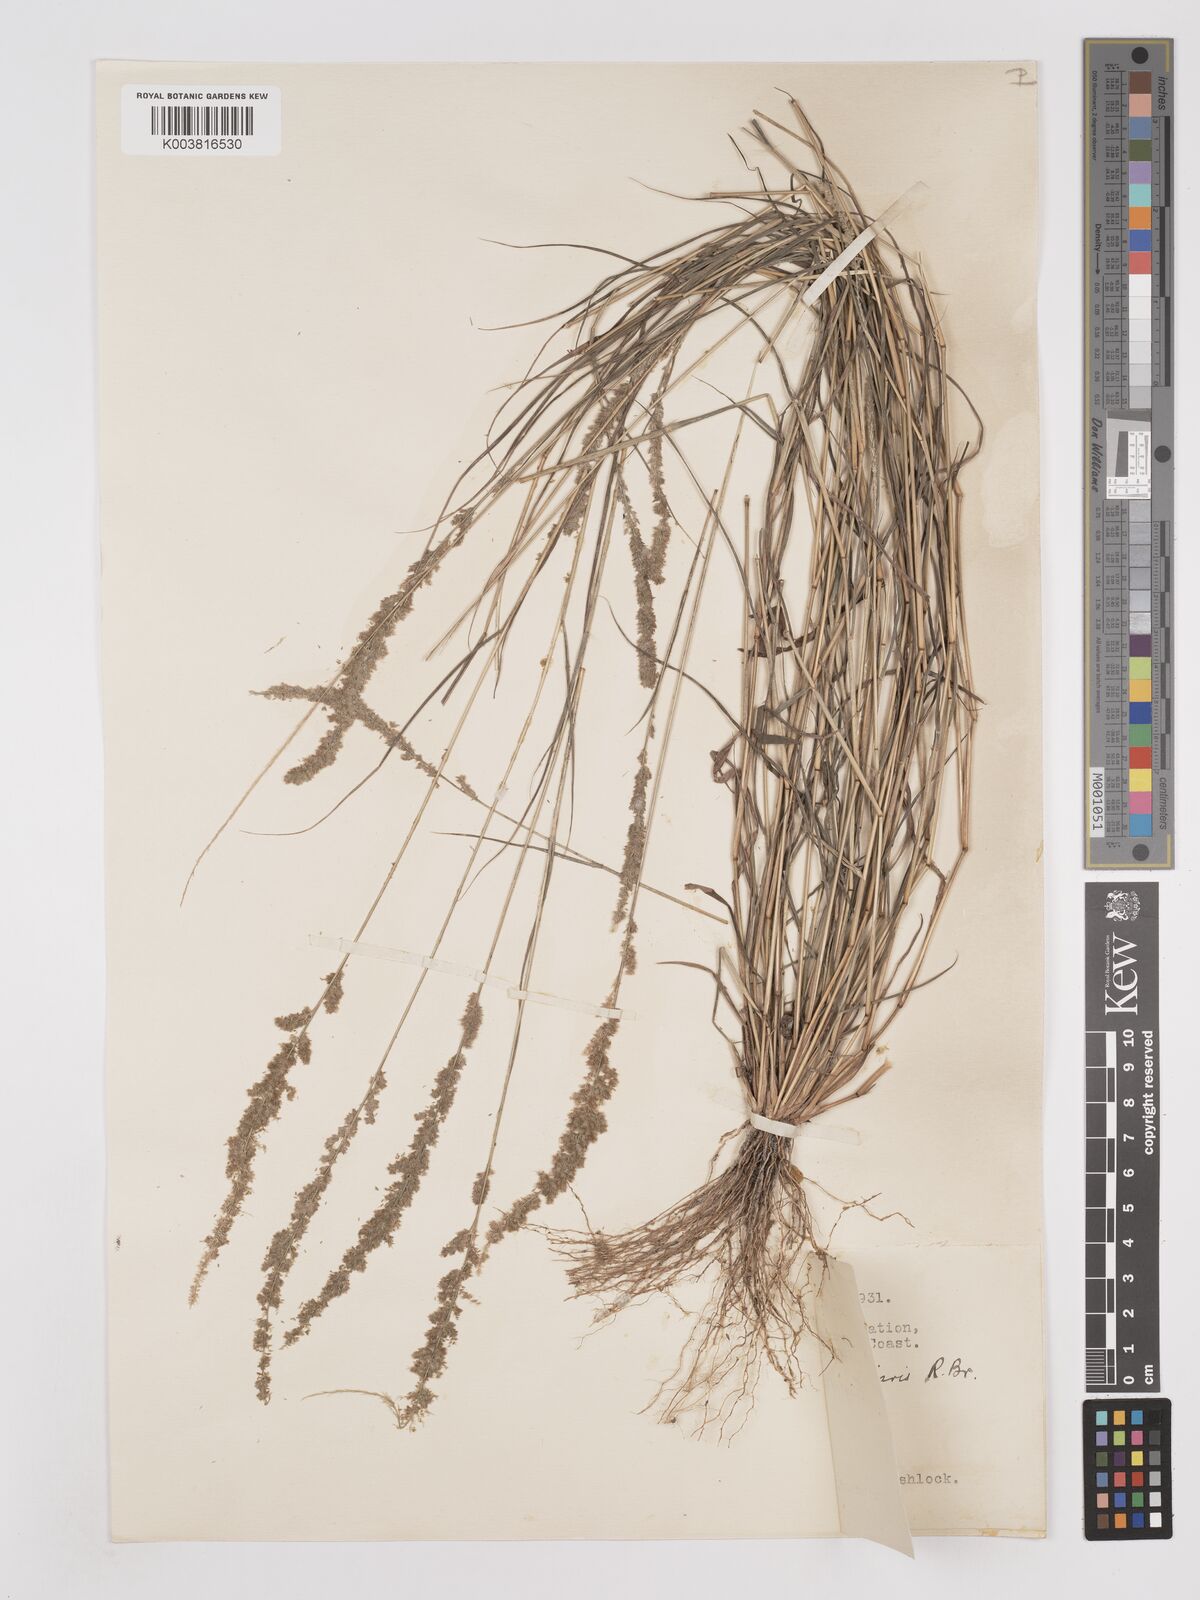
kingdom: Plantae
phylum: Tracheophyta
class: Liliopsida
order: Poales
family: Poaceae
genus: Eragrostis
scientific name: Eragrostis ciliaris
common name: Gophertail lovegrass
